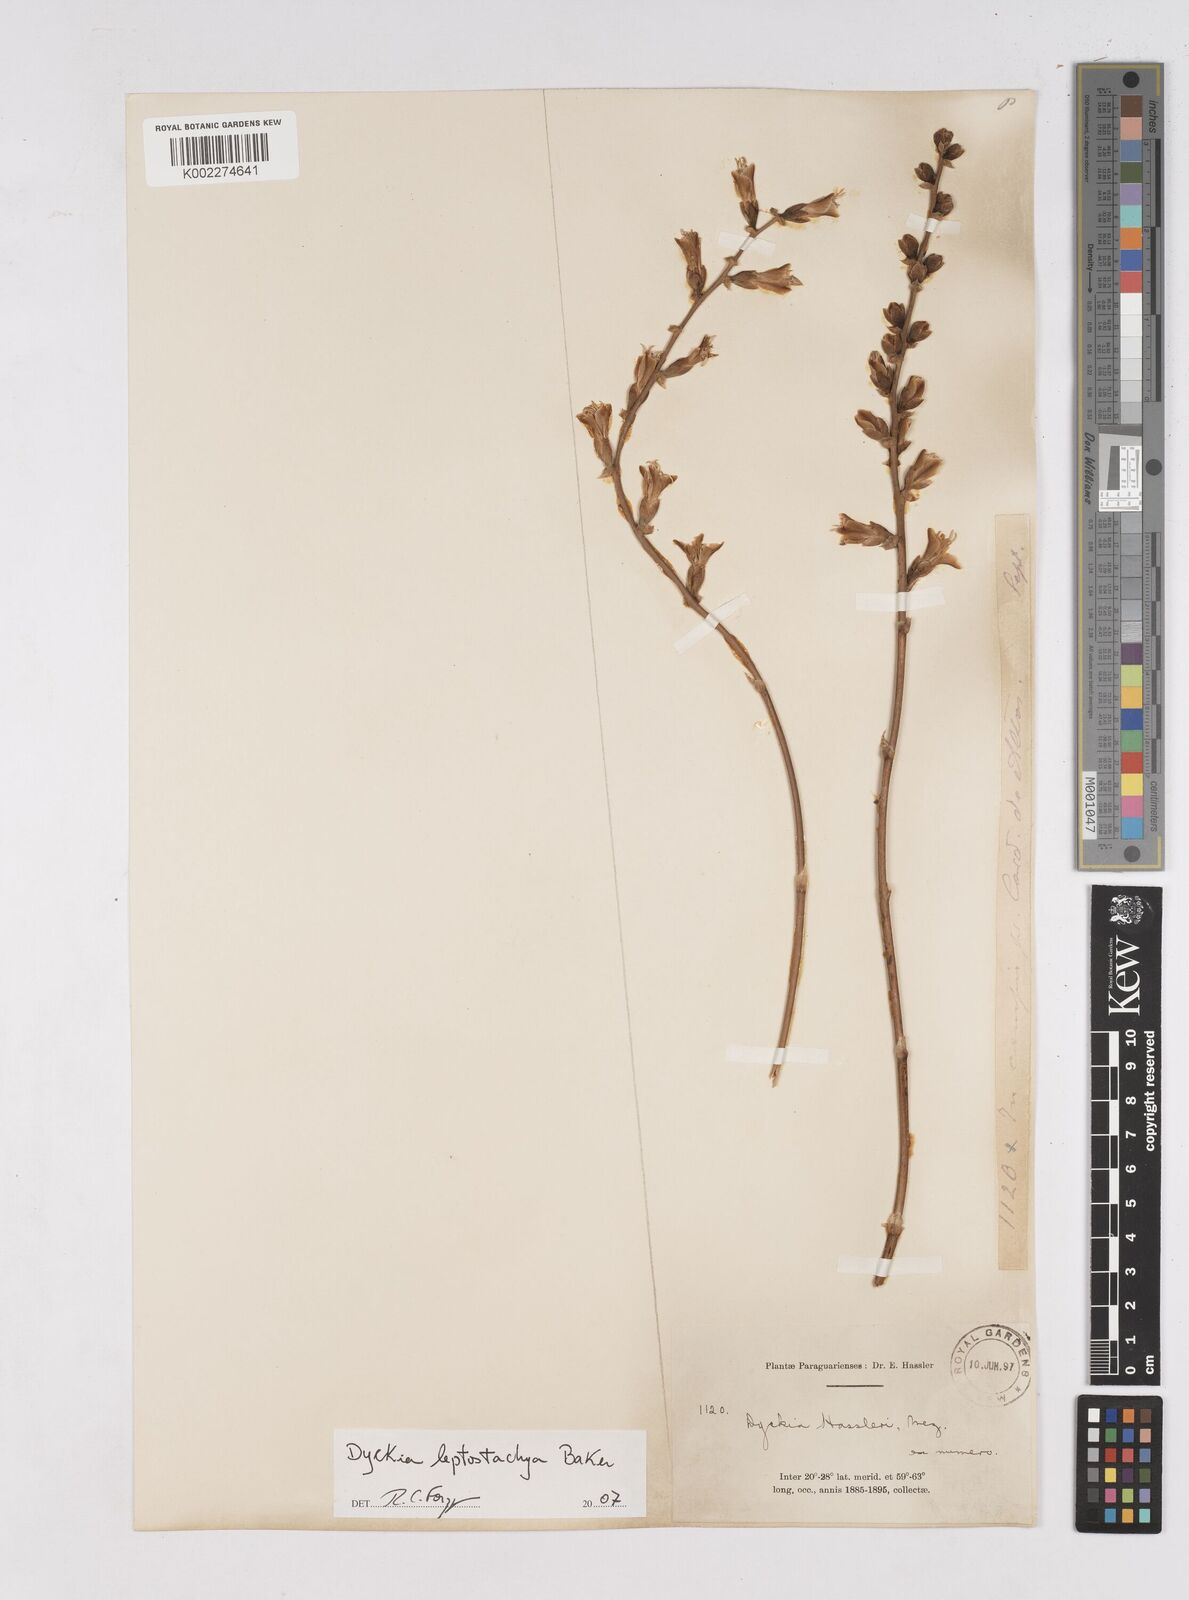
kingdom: Plantae
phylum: Tracheophyta
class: Liliopsida
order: Poales
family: Bromeliaceae
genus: Dyckia
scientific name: Dyckia leptostachya
